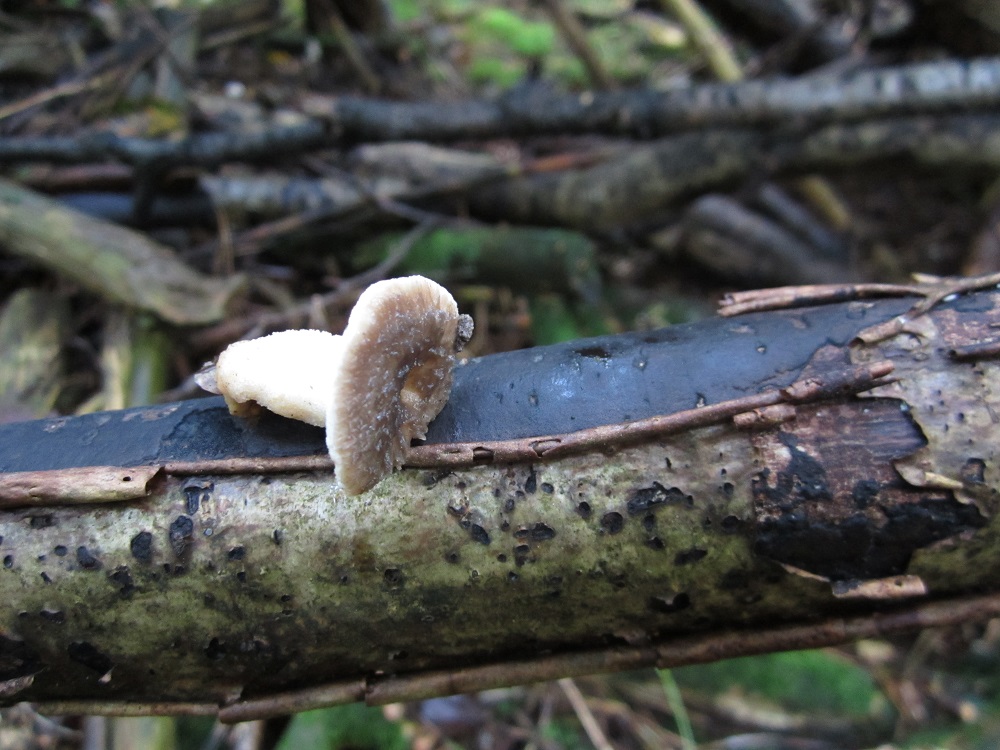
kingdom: Fungi
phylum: Basidiomycota
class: Agaricomycetes
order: Polyporales
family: Polyporaceae
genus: Polyporus
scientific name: Polyporus tuberaster
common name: knoldet stilkporesvamp
